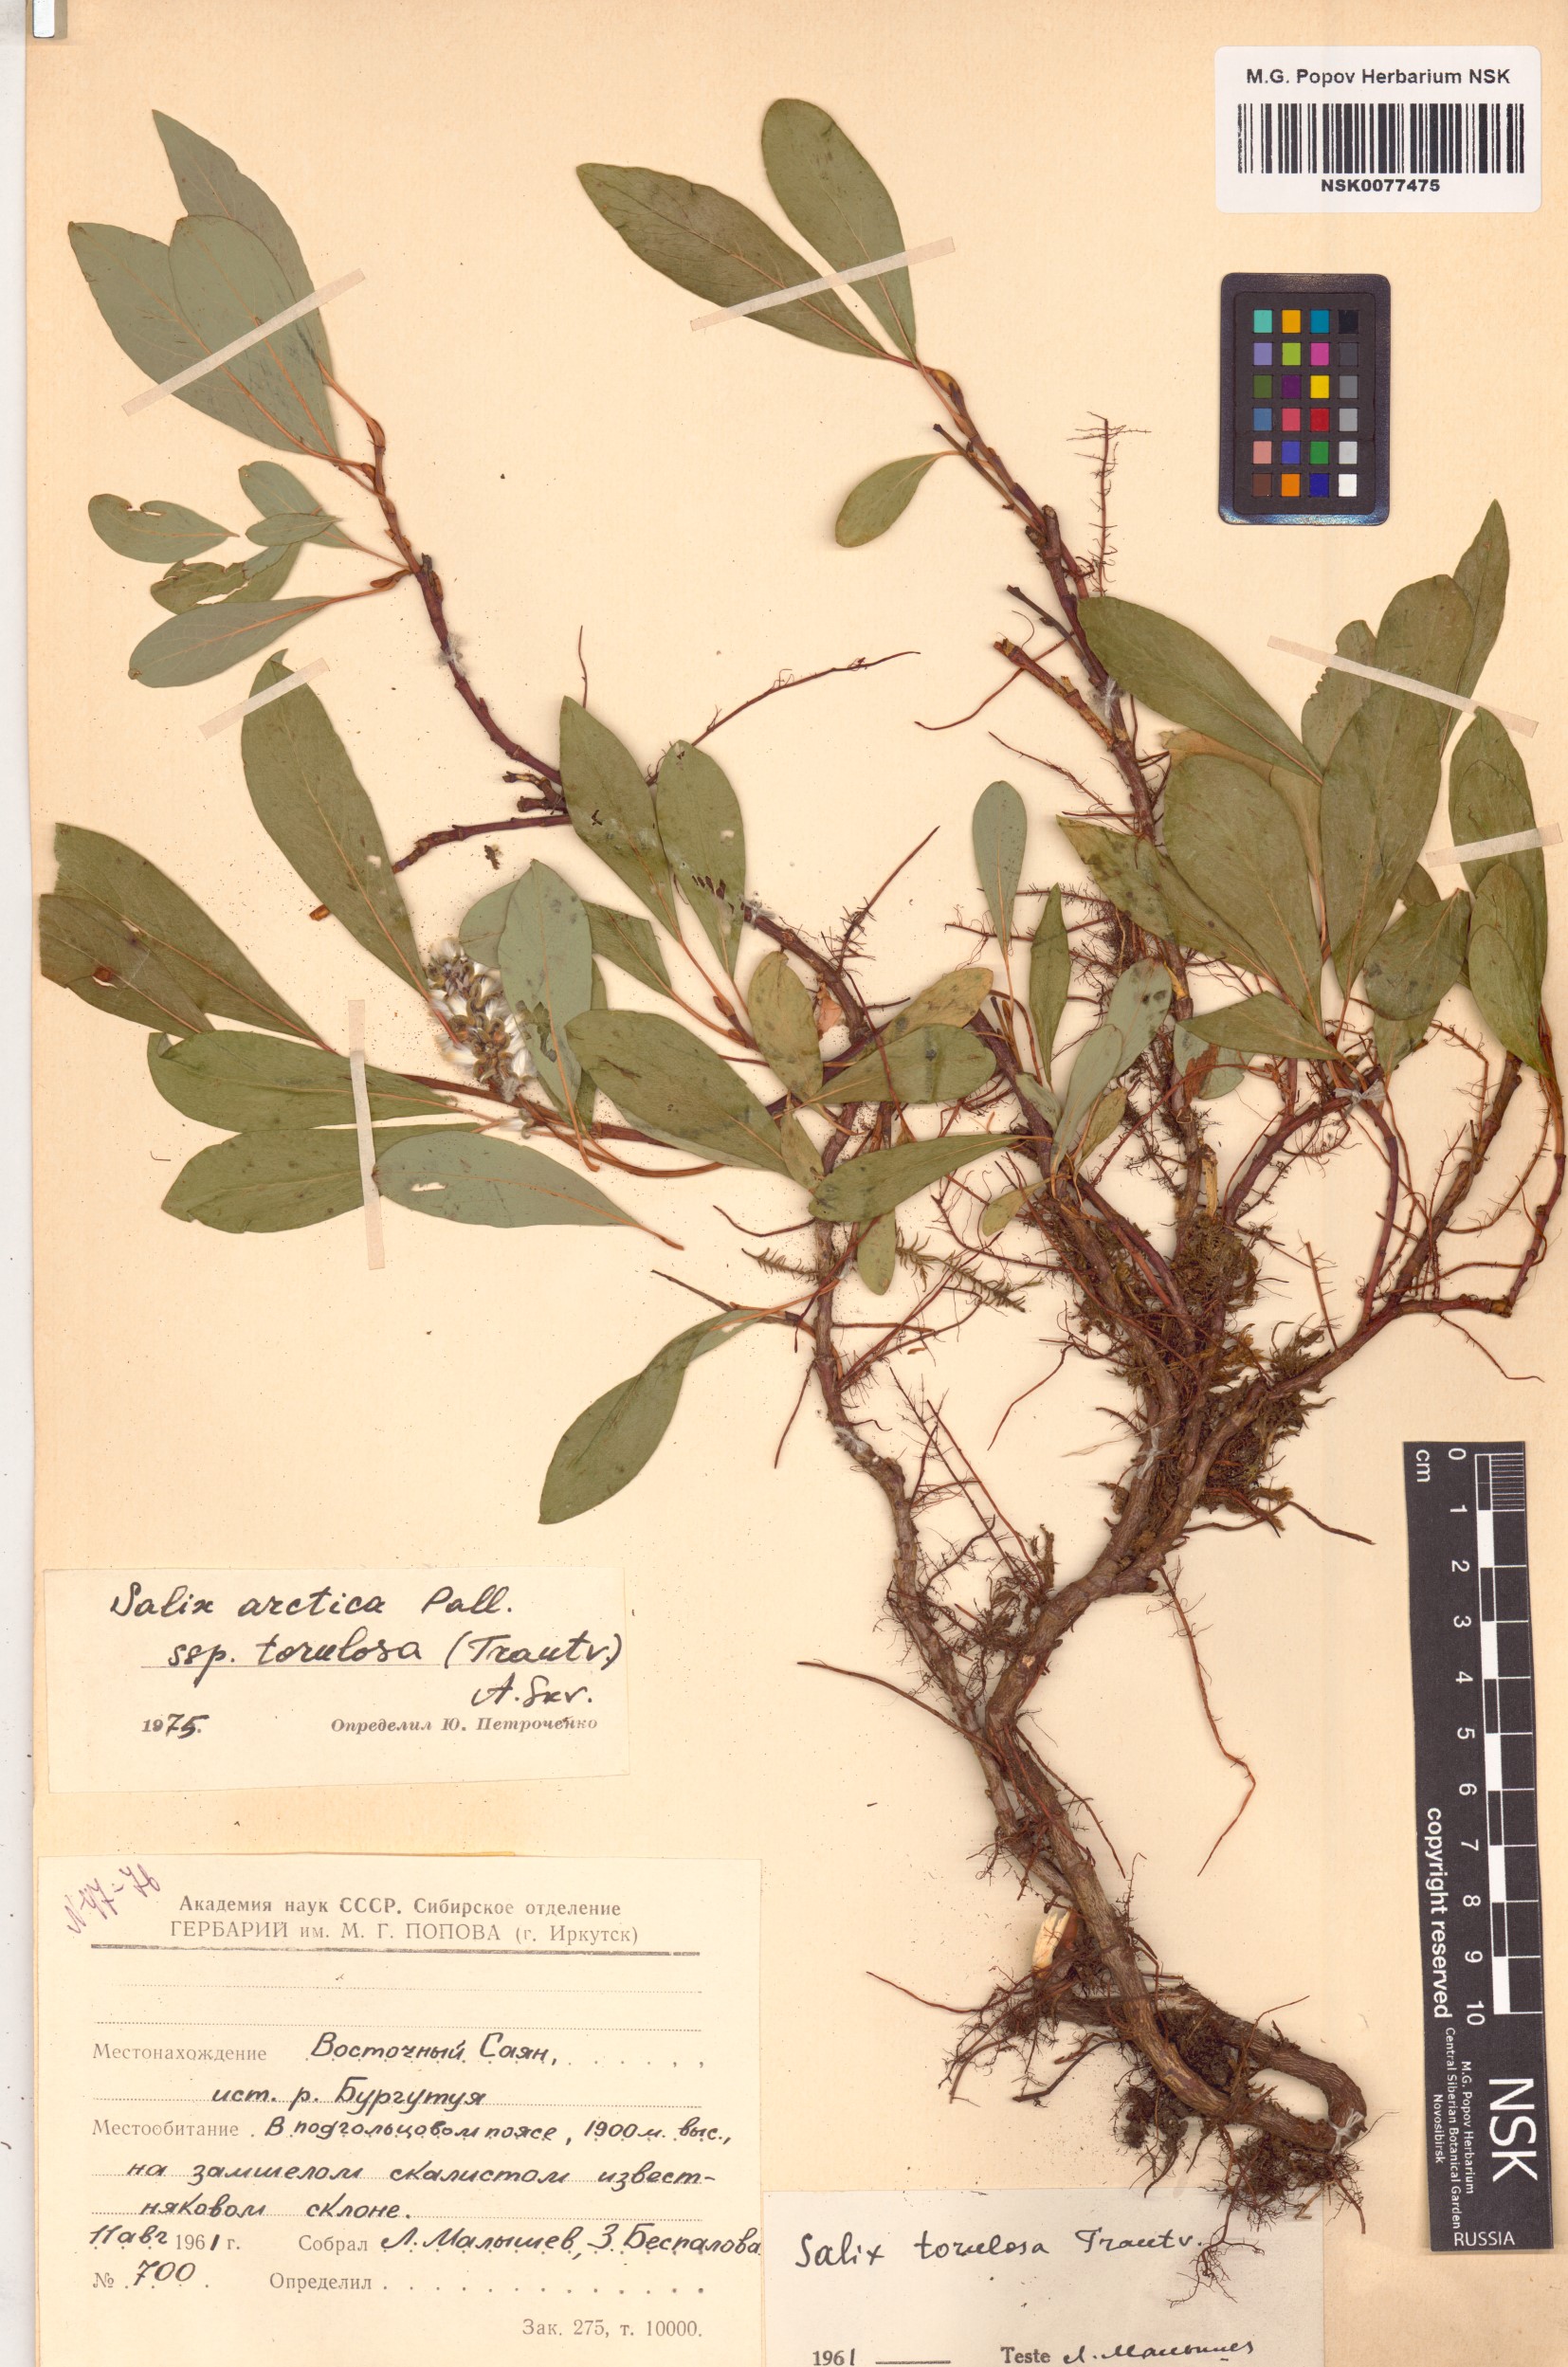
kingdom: Plantae
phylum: Tracheophyta
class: Magnoliopsida
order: Malpighiales
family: Salicaceae
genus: Salix
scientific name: Salix arctica
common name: Arctic willow
